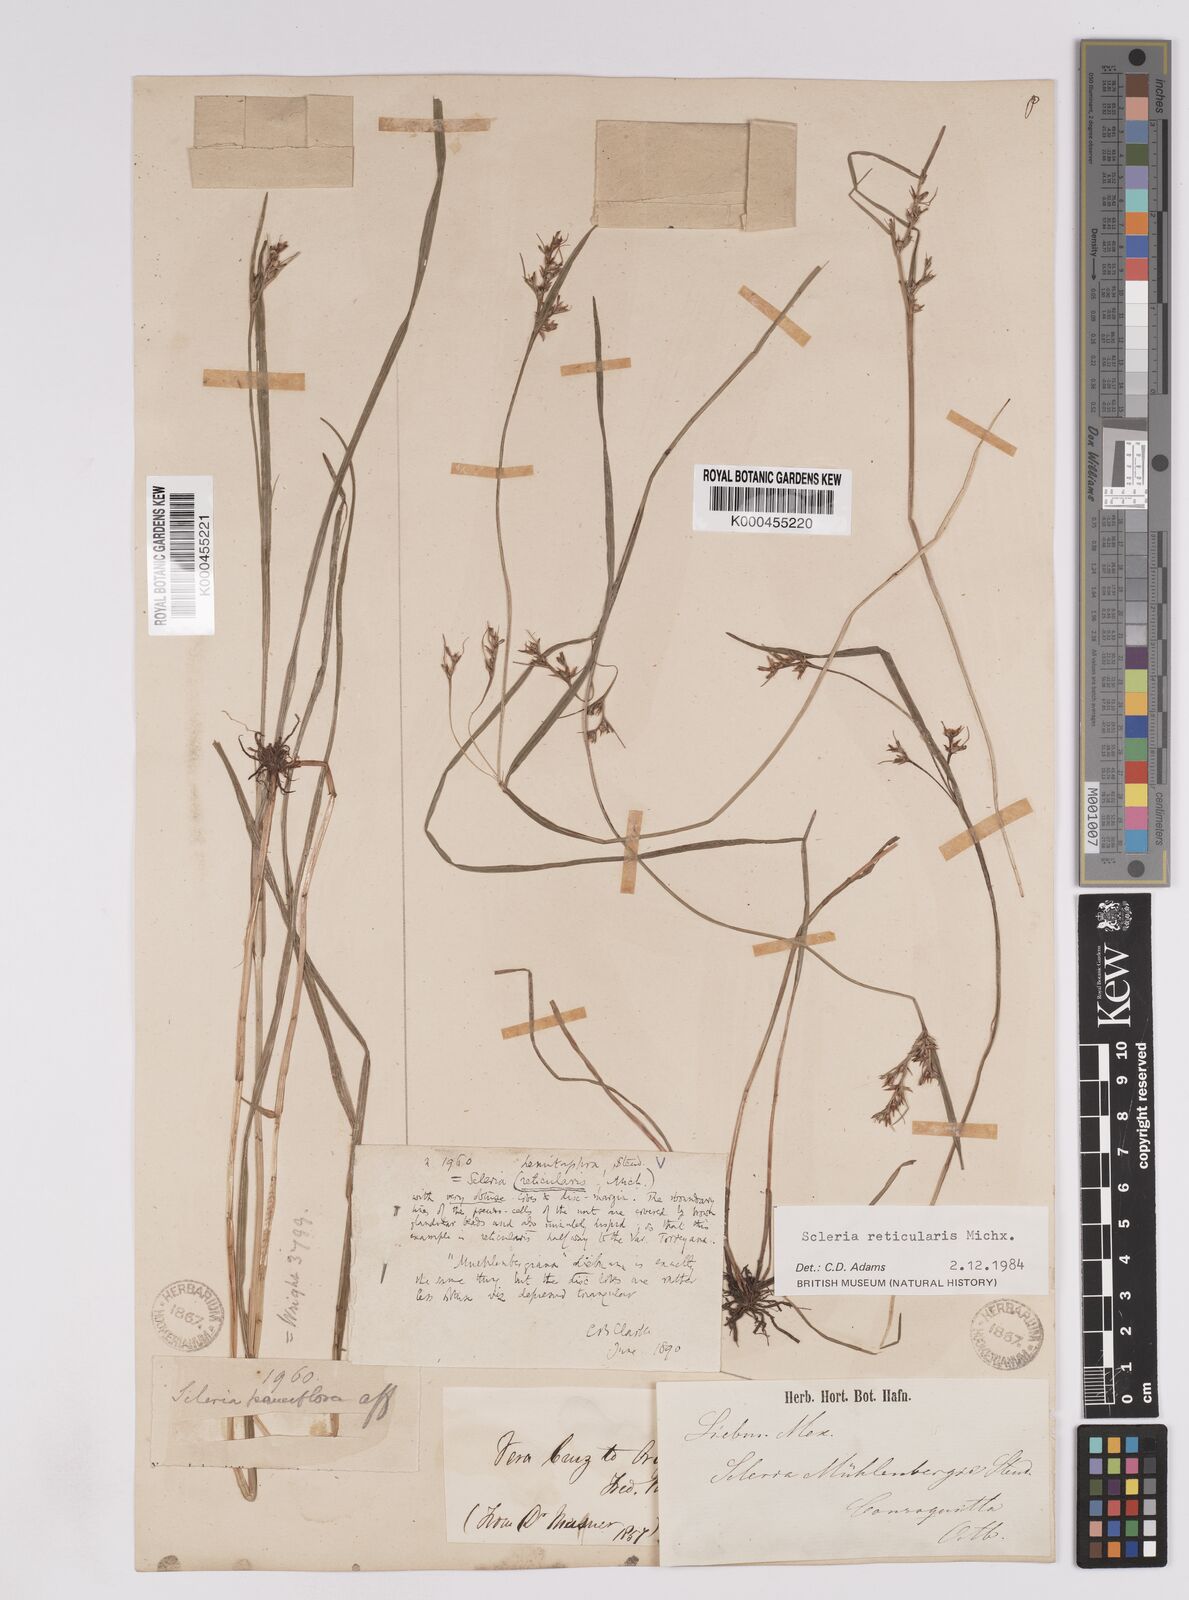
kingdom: Plantae
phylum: Tracheophyta
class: Liliopsida
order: Poales
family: Cyperaceae
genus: Scleria
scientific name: Scleria
